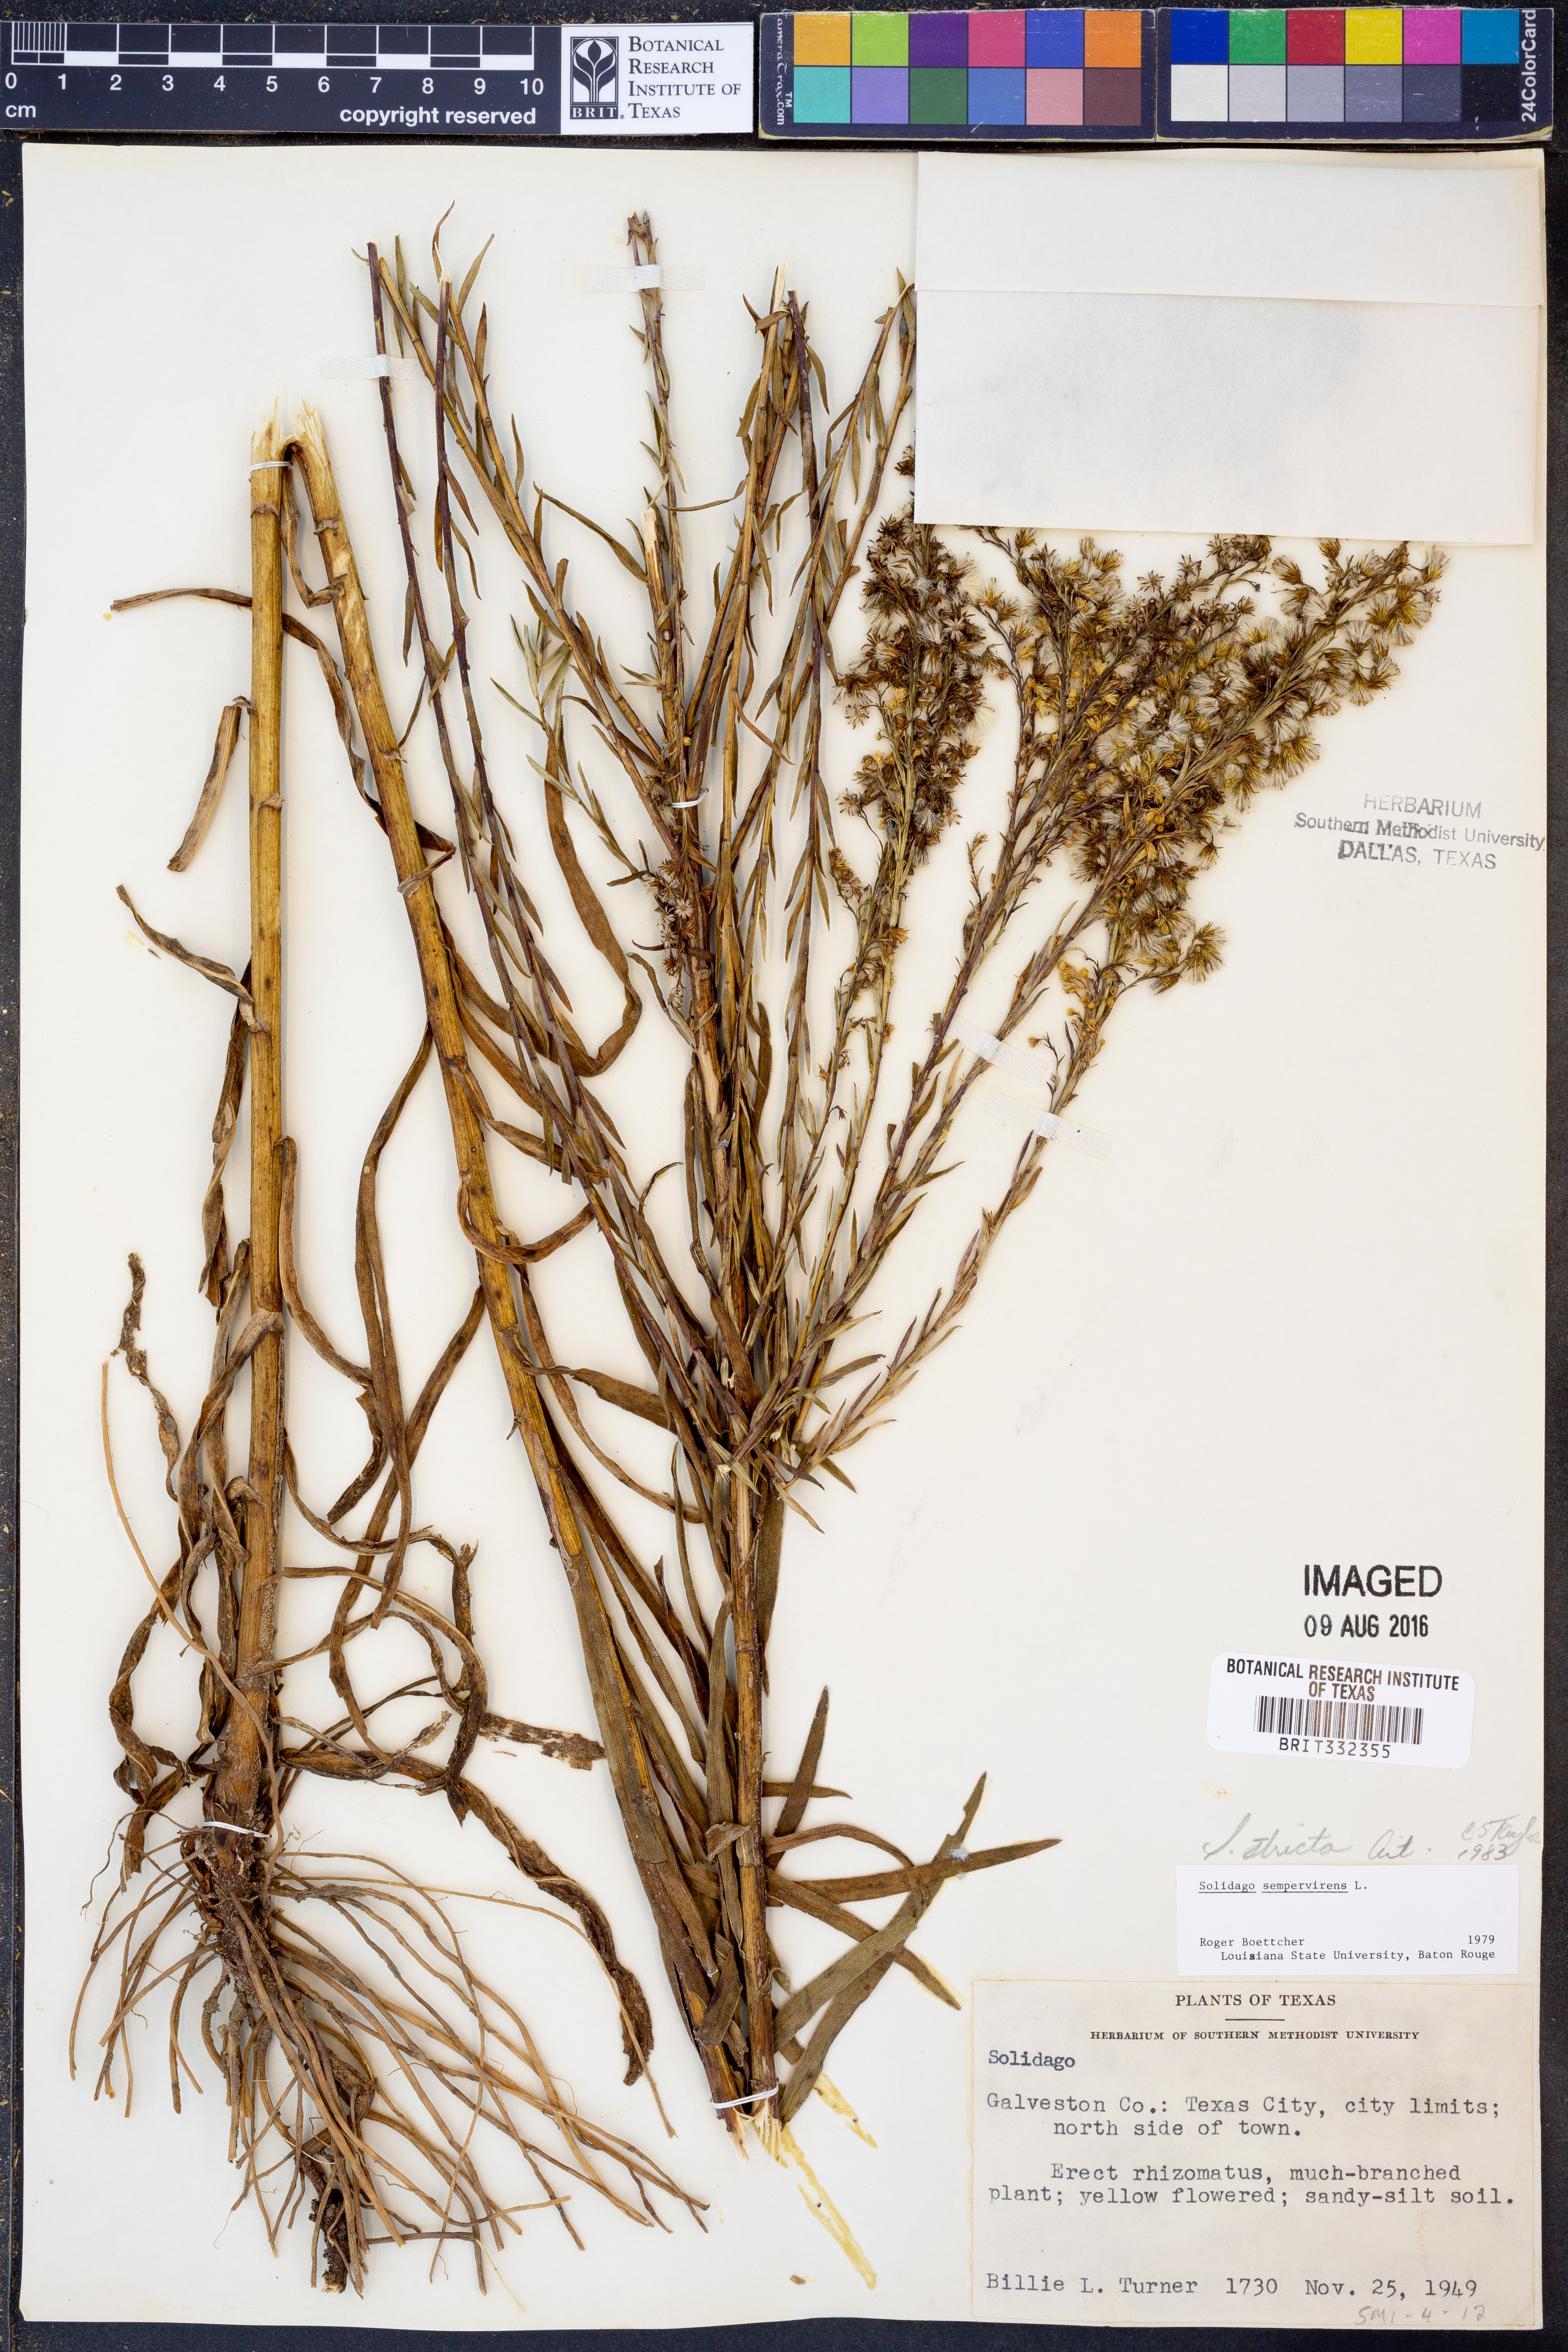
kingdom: Plantae
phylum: Tracheophyta
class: Magnoliopsida
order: Asterales
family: Asteraceae
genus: Solidago
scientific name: Solidago stricta
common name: Pine barren bog goldenrod
